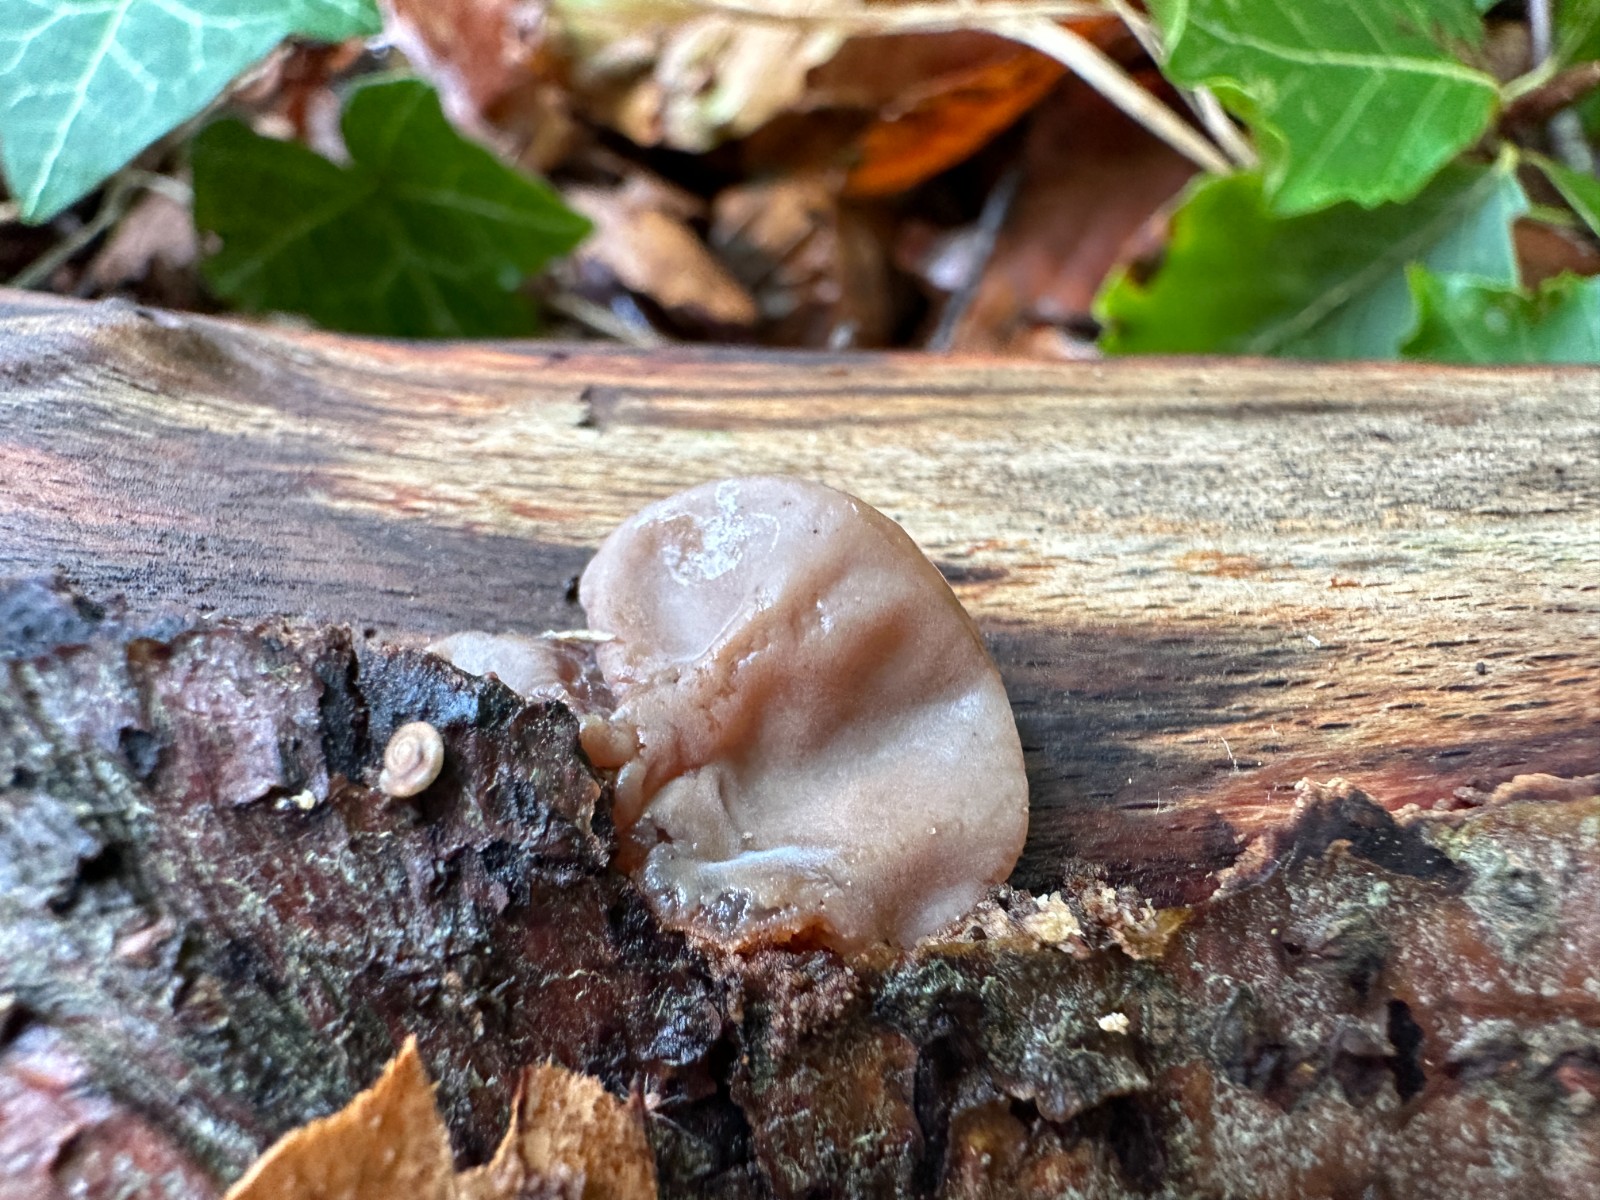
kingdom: Fungi
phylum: Basidiomycota
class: Agaricomycetes
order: Auriculariales
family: Auriculariaceae
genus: Auricularia
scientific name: Auricularia auricula-judae
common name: almindelig judasøre
